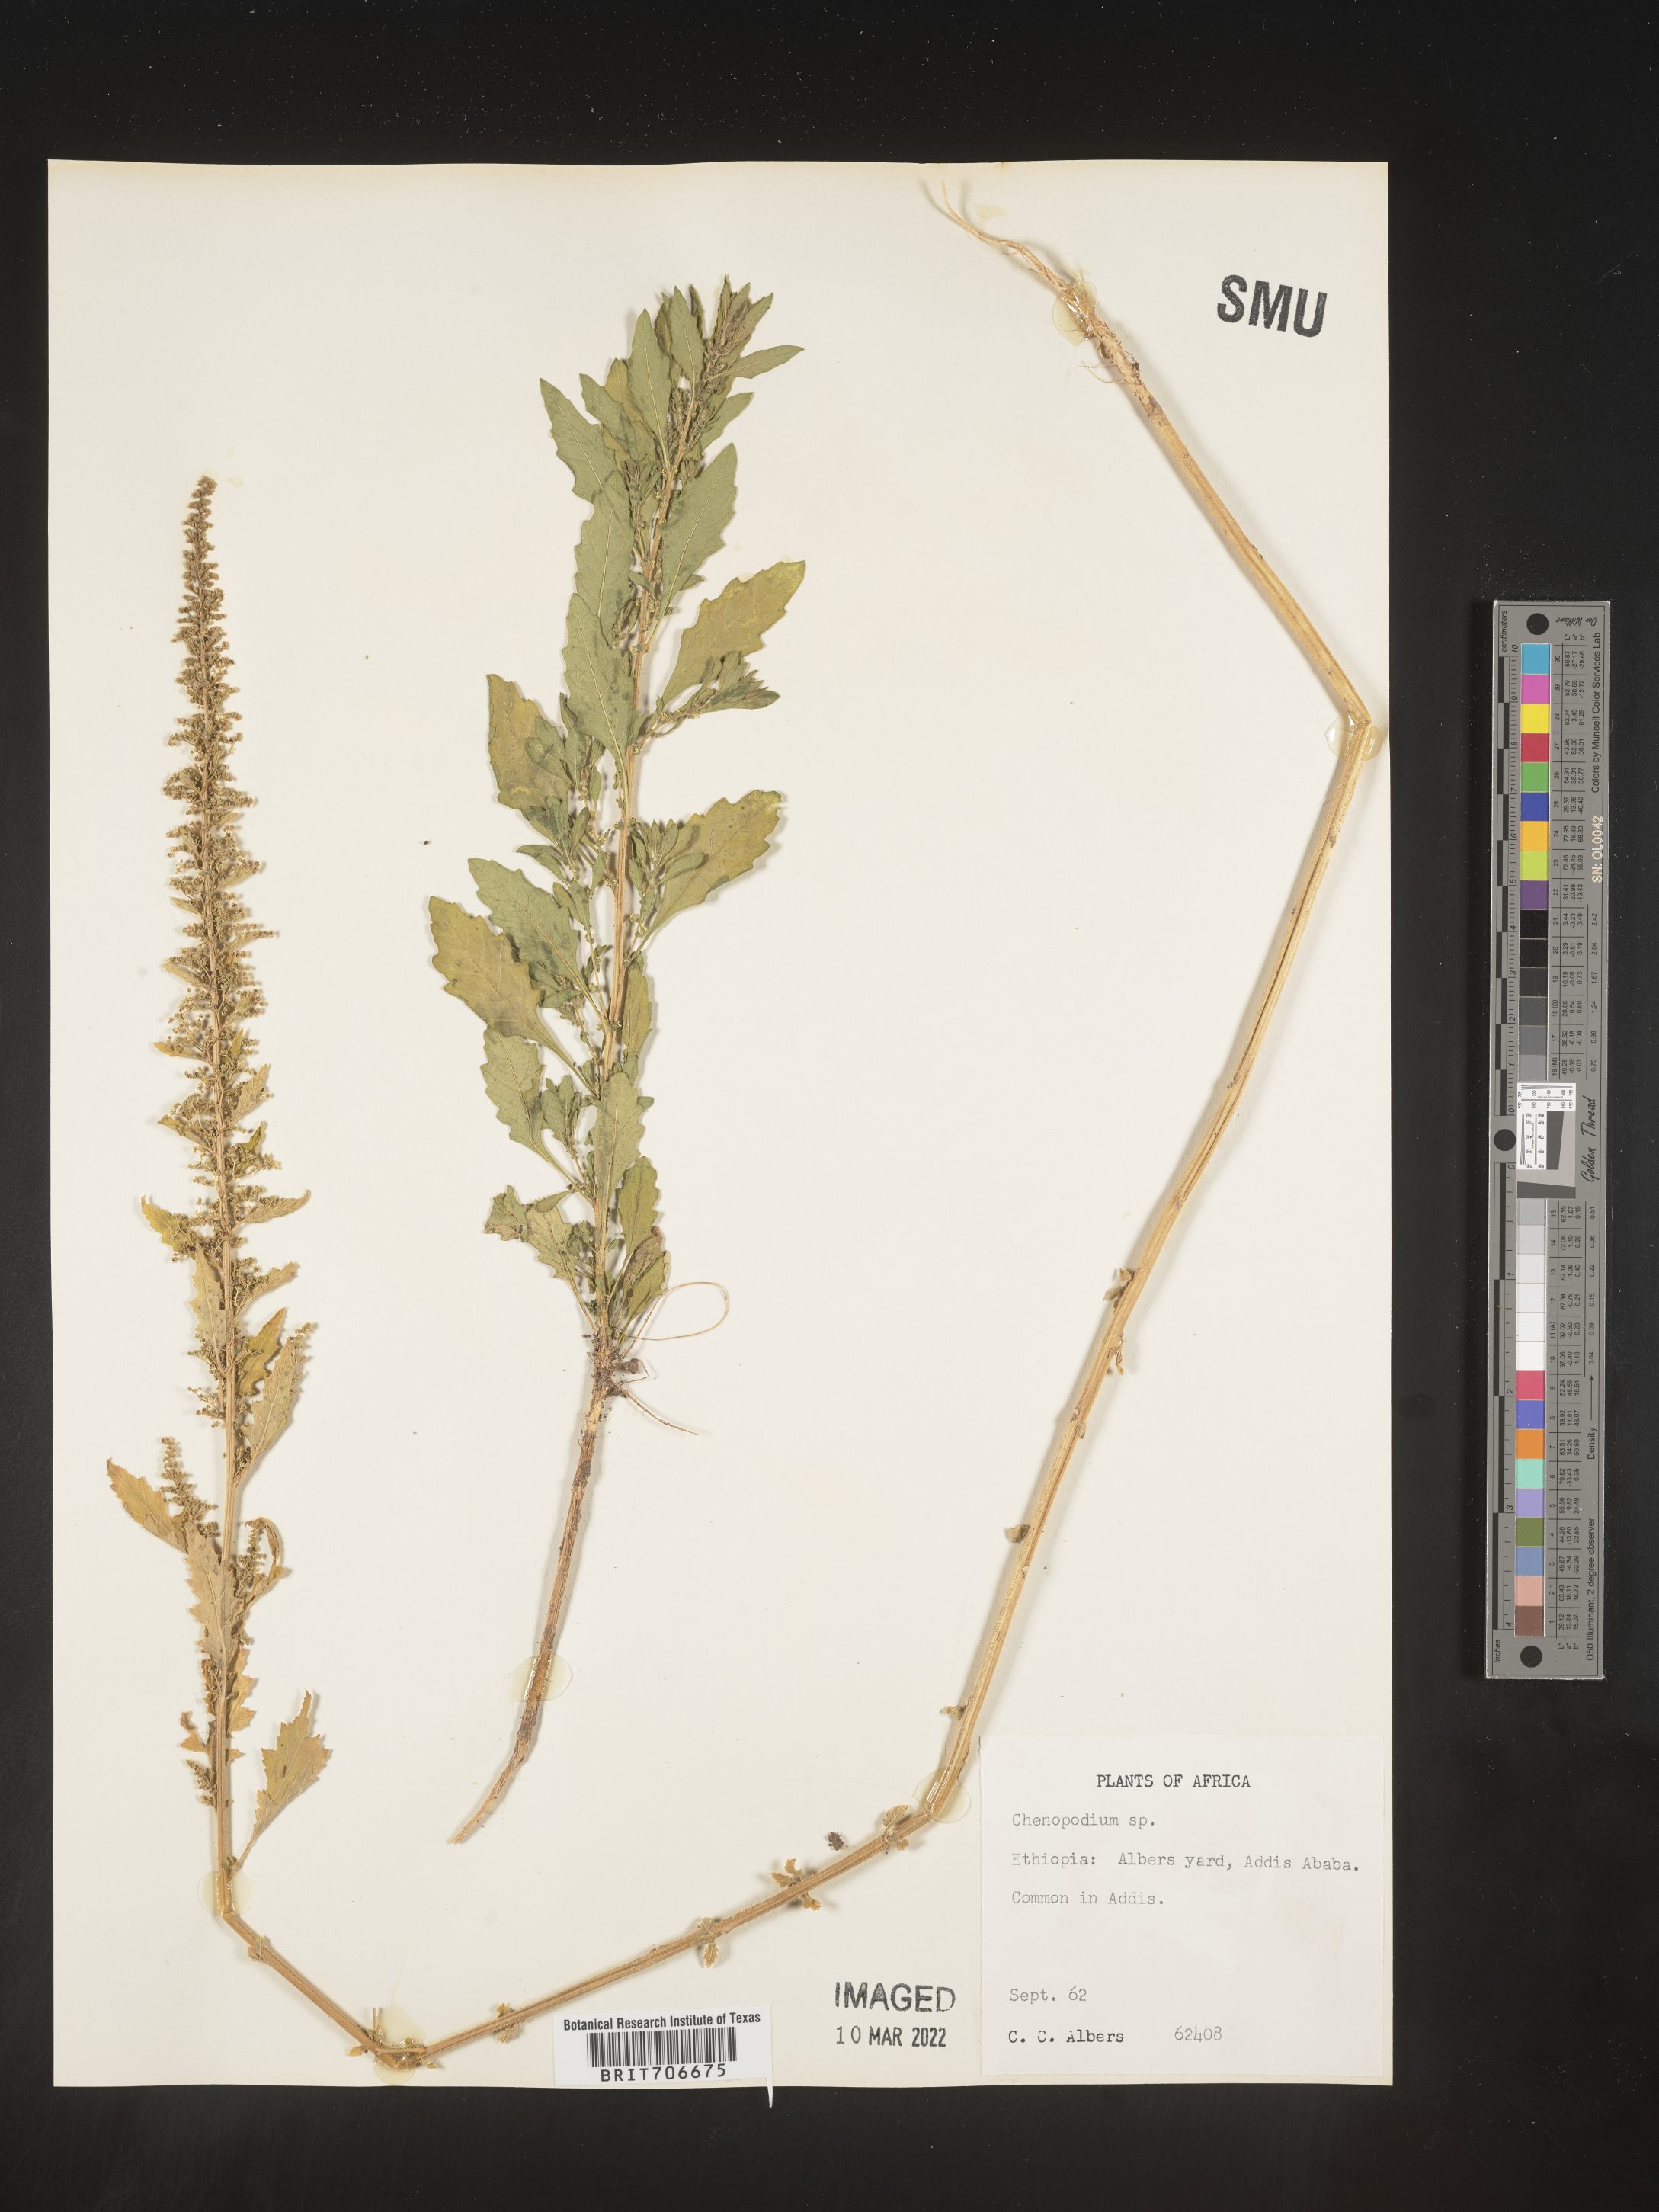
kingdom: Plantae
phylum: Tracheophyta
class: Magnoliopsida
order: Caryophyllales
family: Amaranthaceae
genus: Chenopodium
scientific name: Chenopodium
